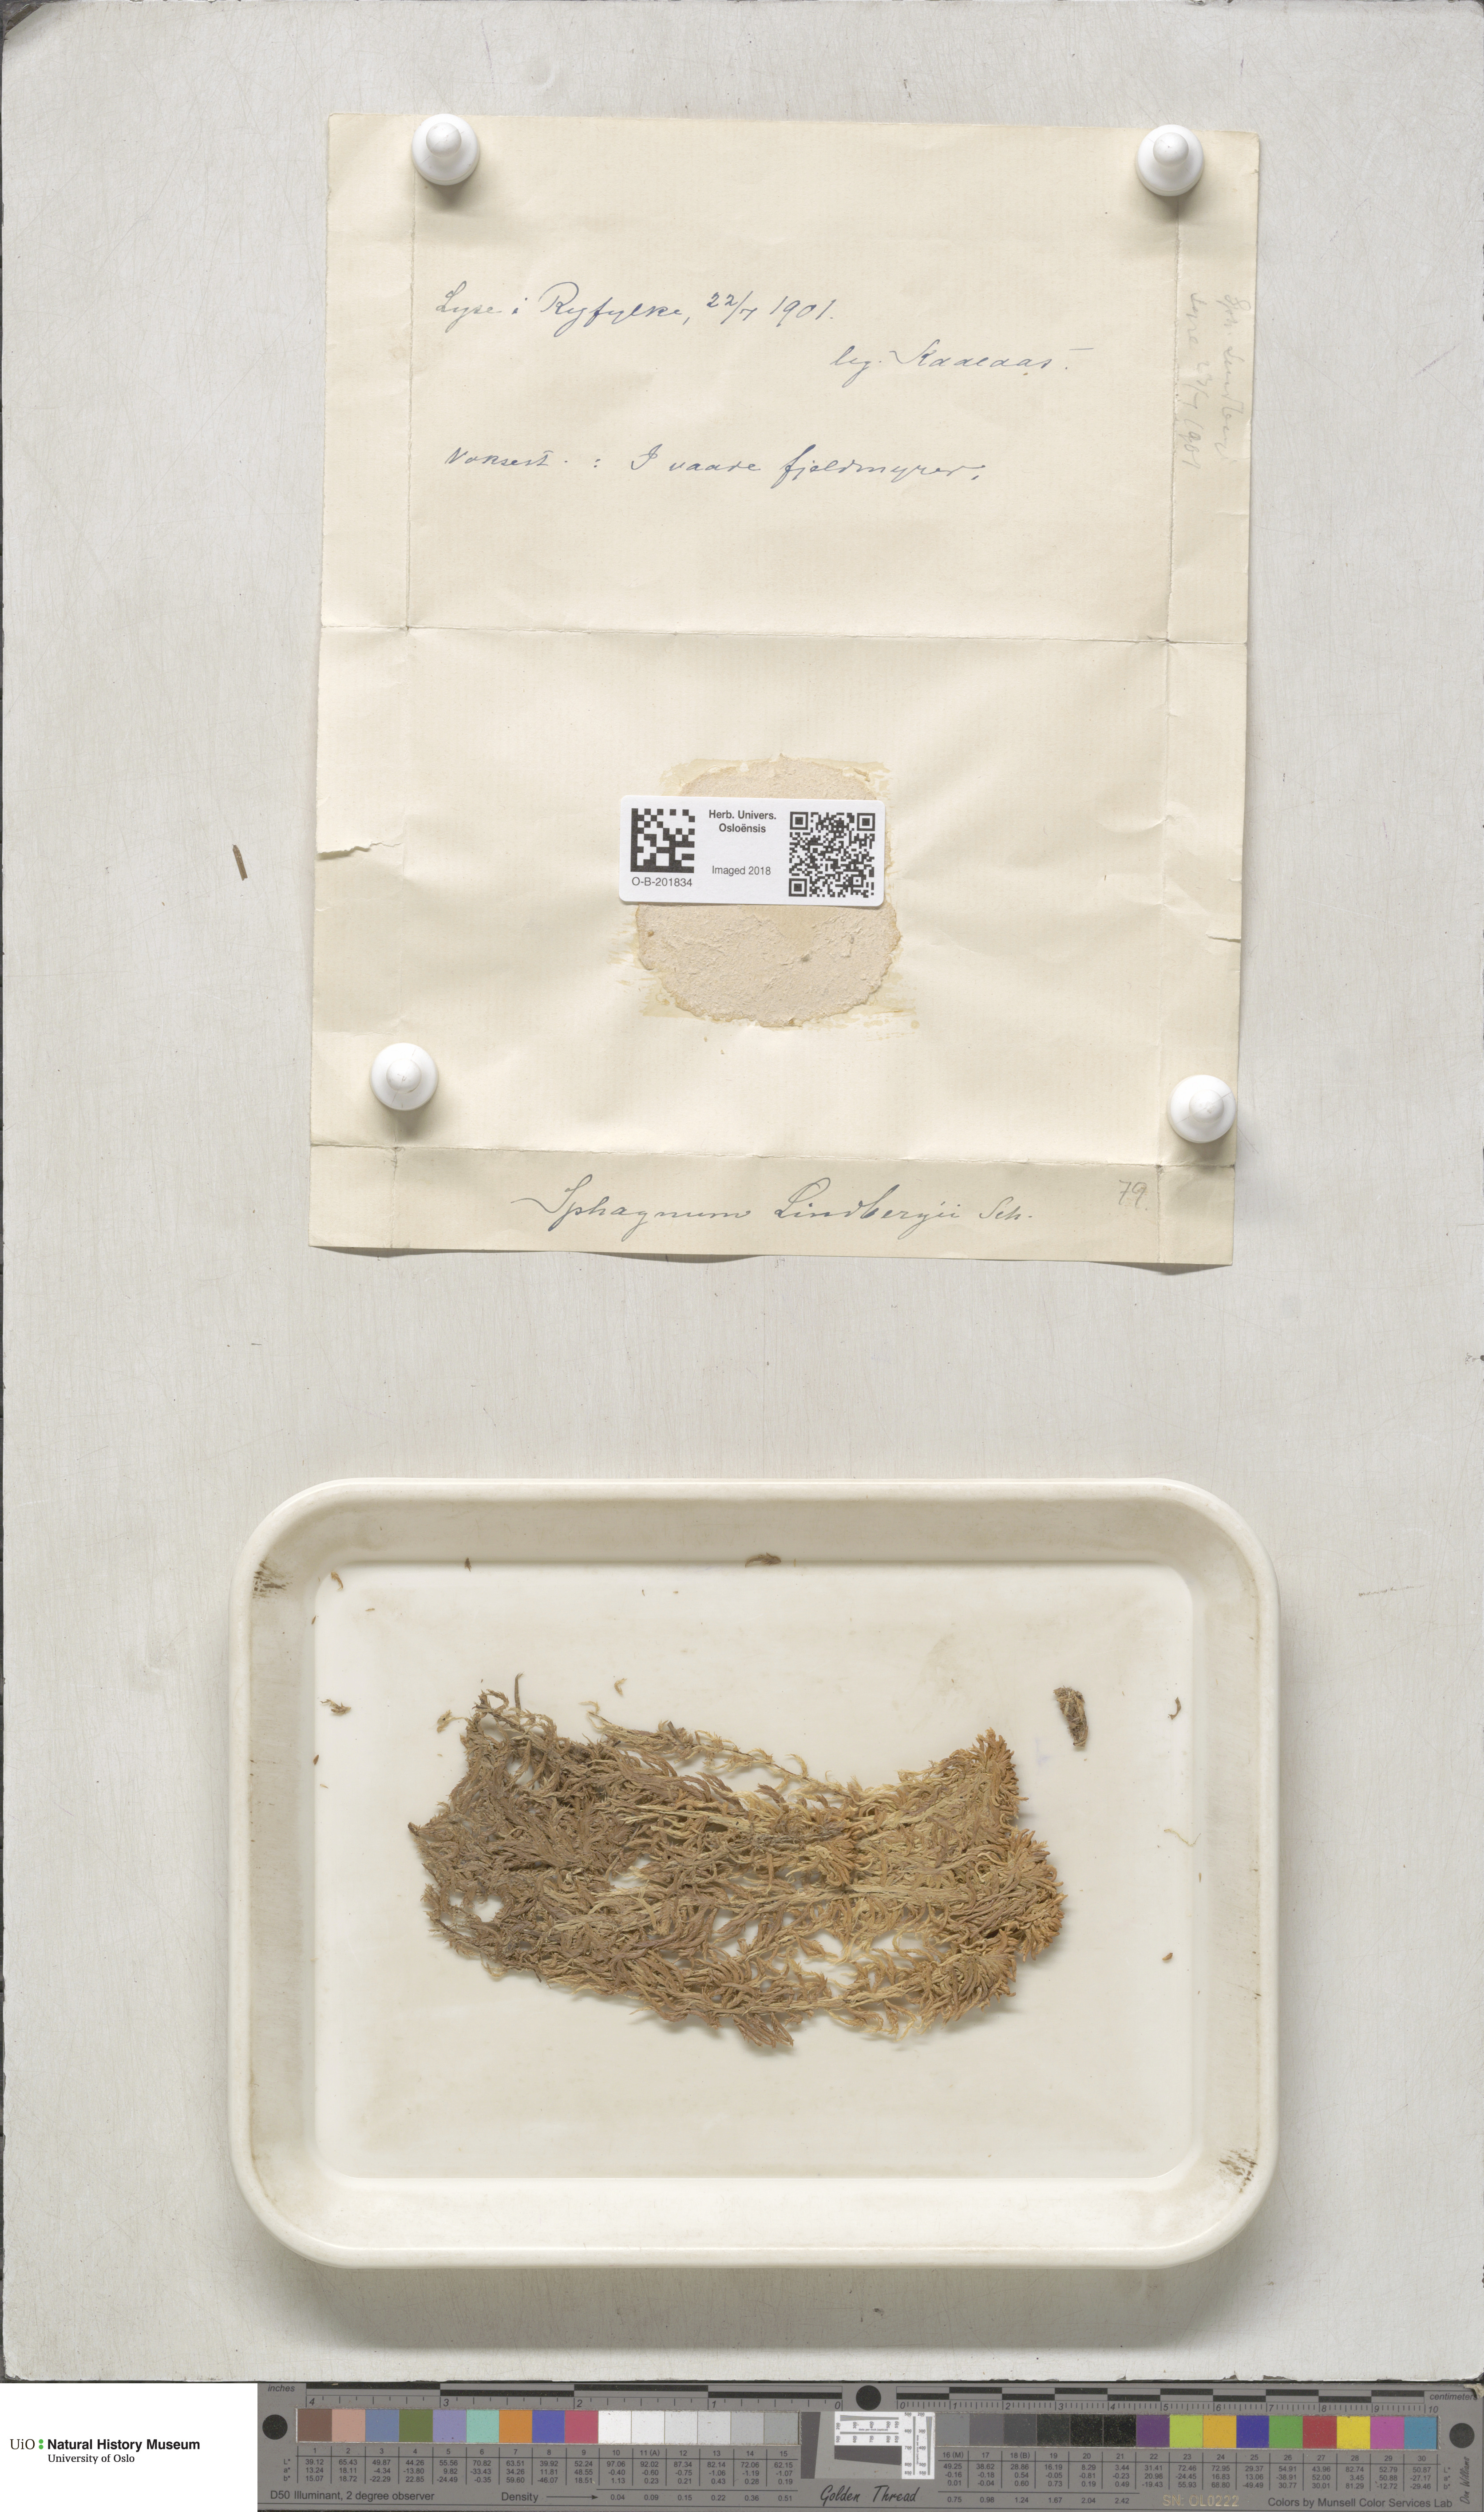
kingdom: Plantae
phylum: Bryophyta
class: Sphagnopsida
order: Sphagnales
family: Sphagnaceae
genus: Sphagnum
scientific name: Sphagnum lindbergii
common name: Lindberg's peat moss
